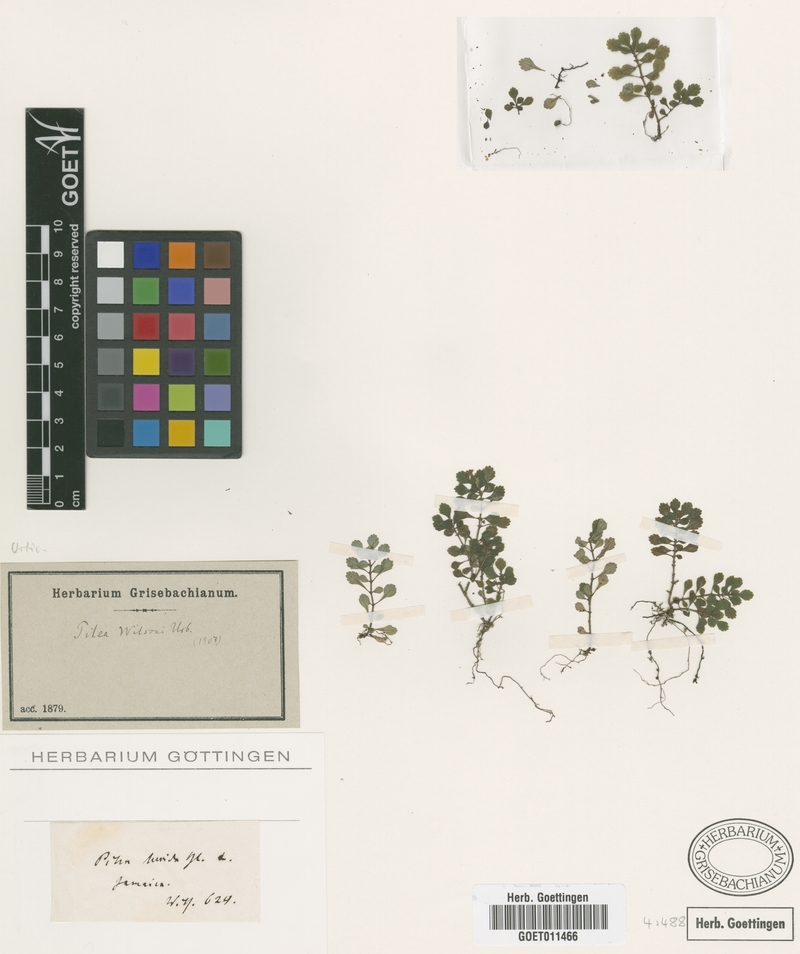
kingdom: Plantae
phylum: Tracheophyta
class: Magnoliopsida
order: Rosales
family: Urticaceae
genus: Pilea
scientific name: Pilea wilsonii
